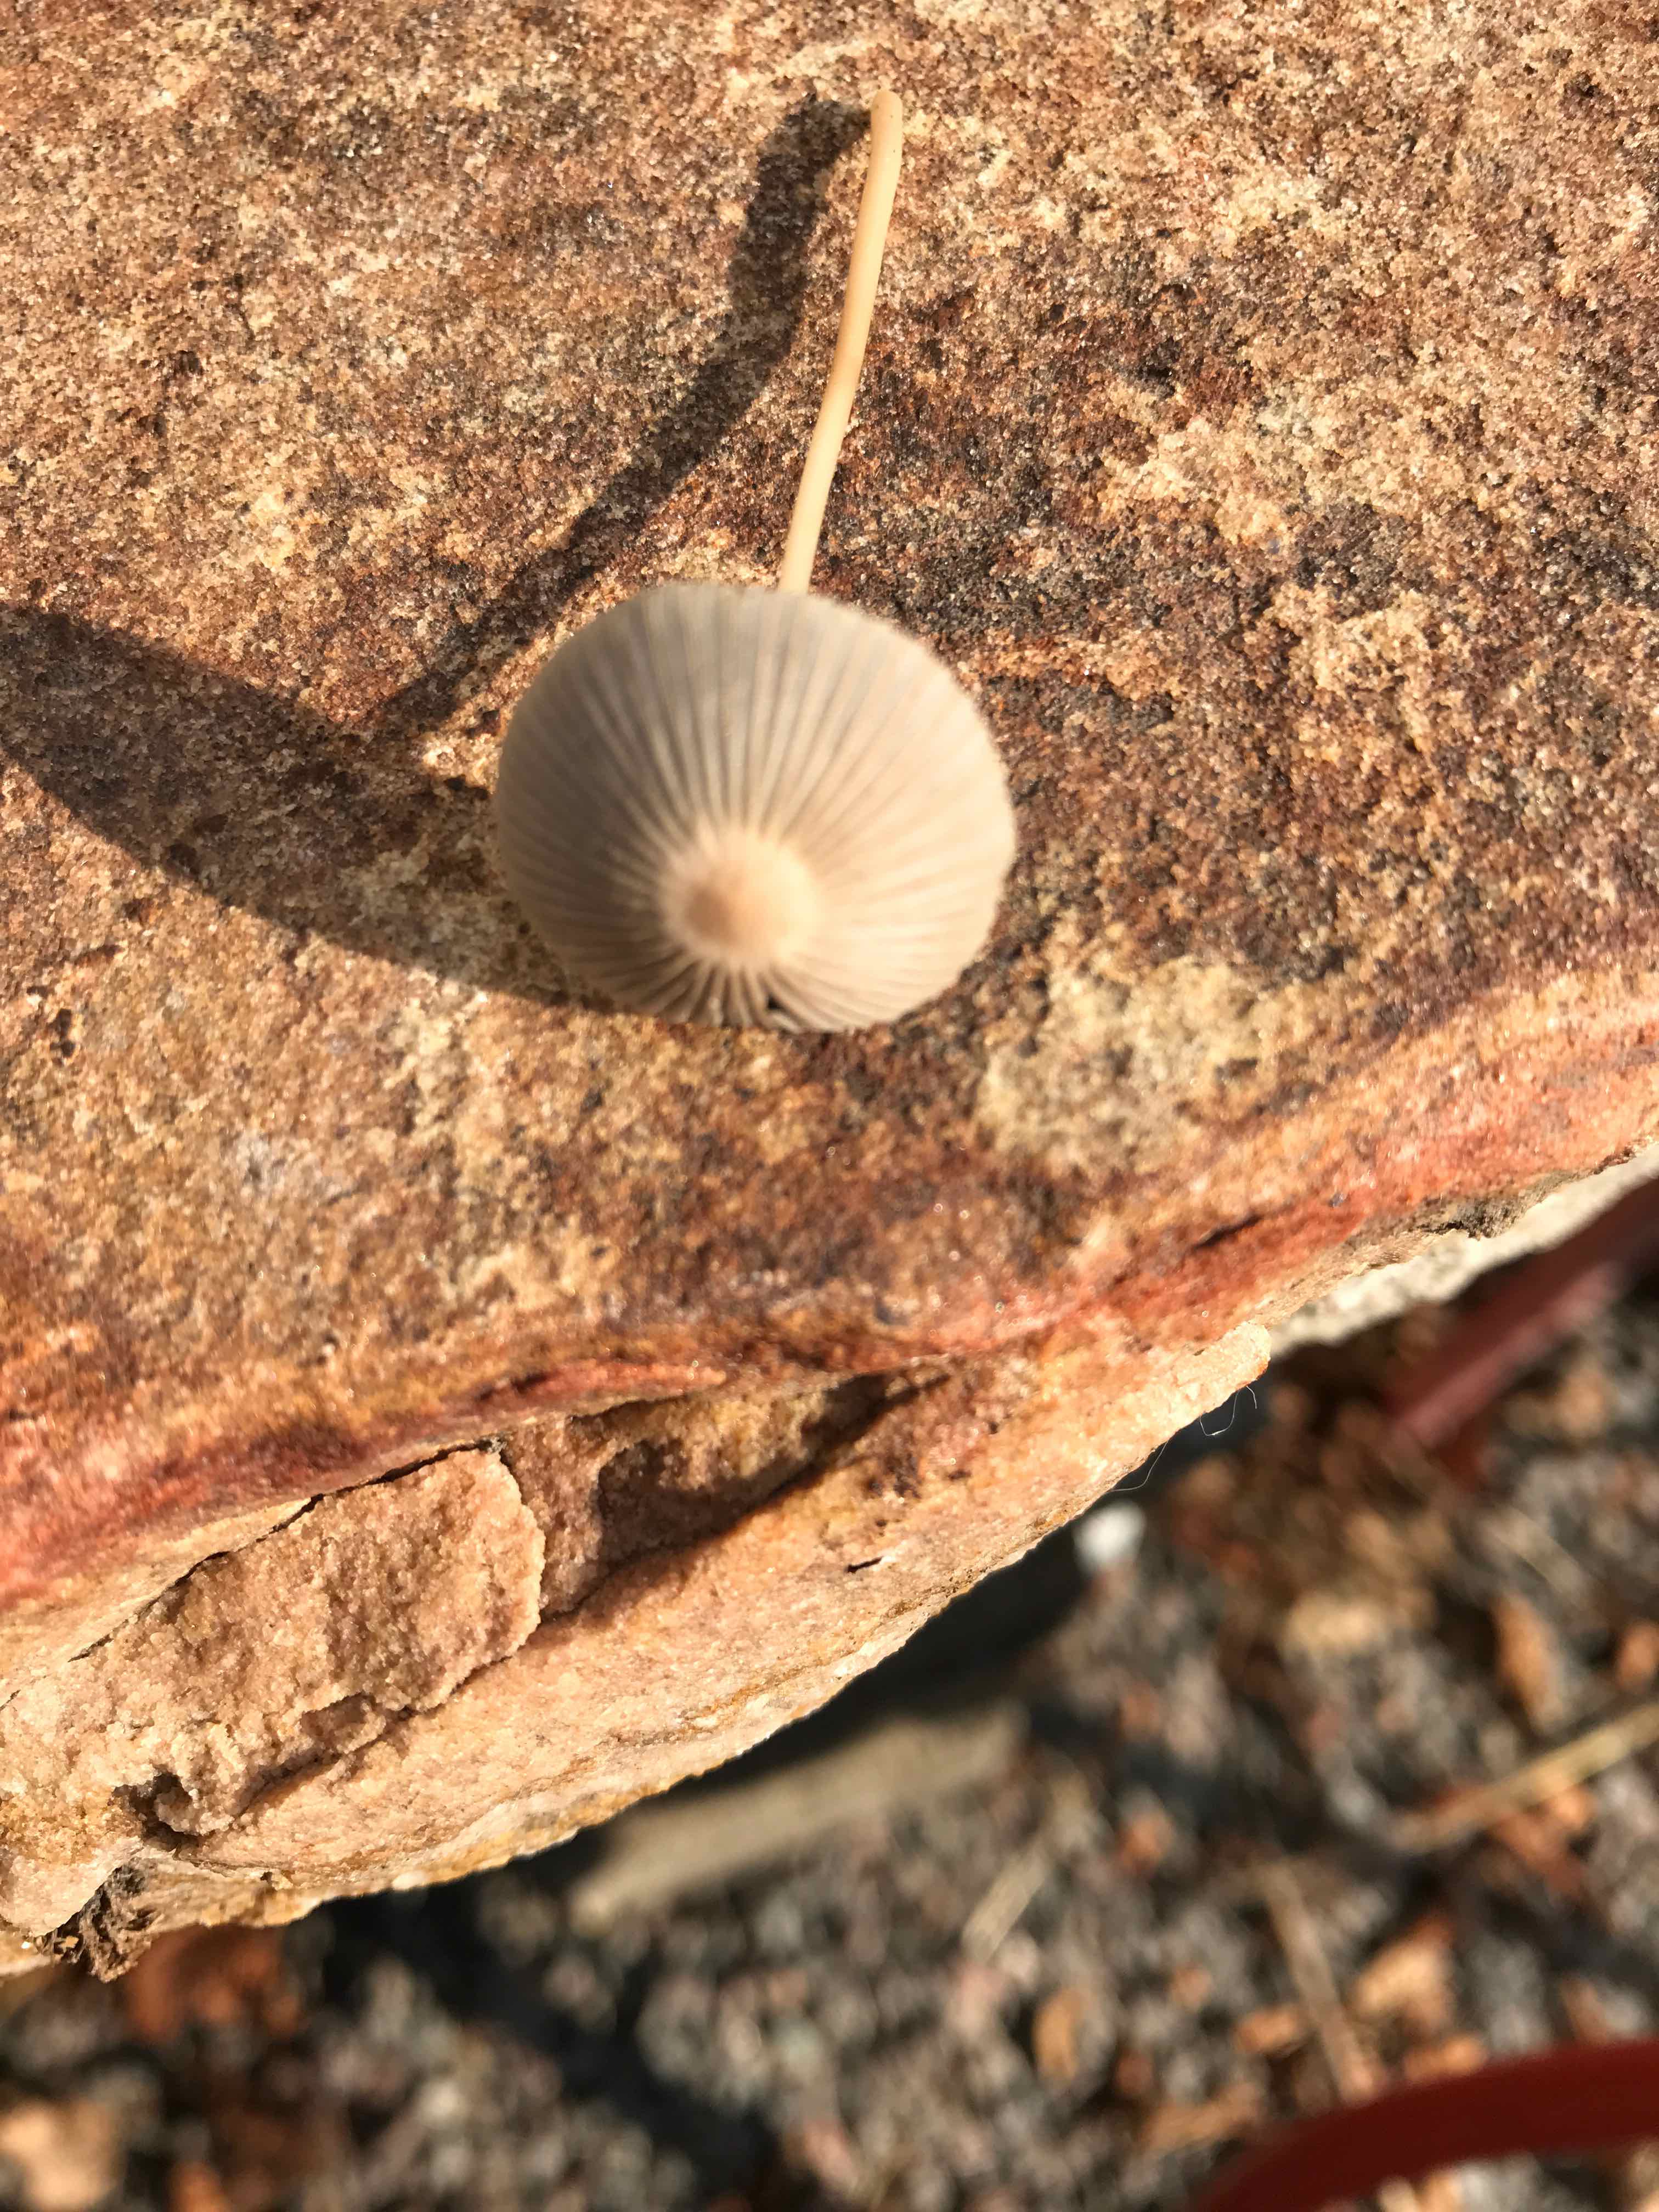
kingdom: Fungi
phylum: Basidiomycota
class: Agaricomycetes
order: Agaricales
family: Psathyrellaceae
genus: Parasola
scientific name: Parasola
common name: hjulhat
